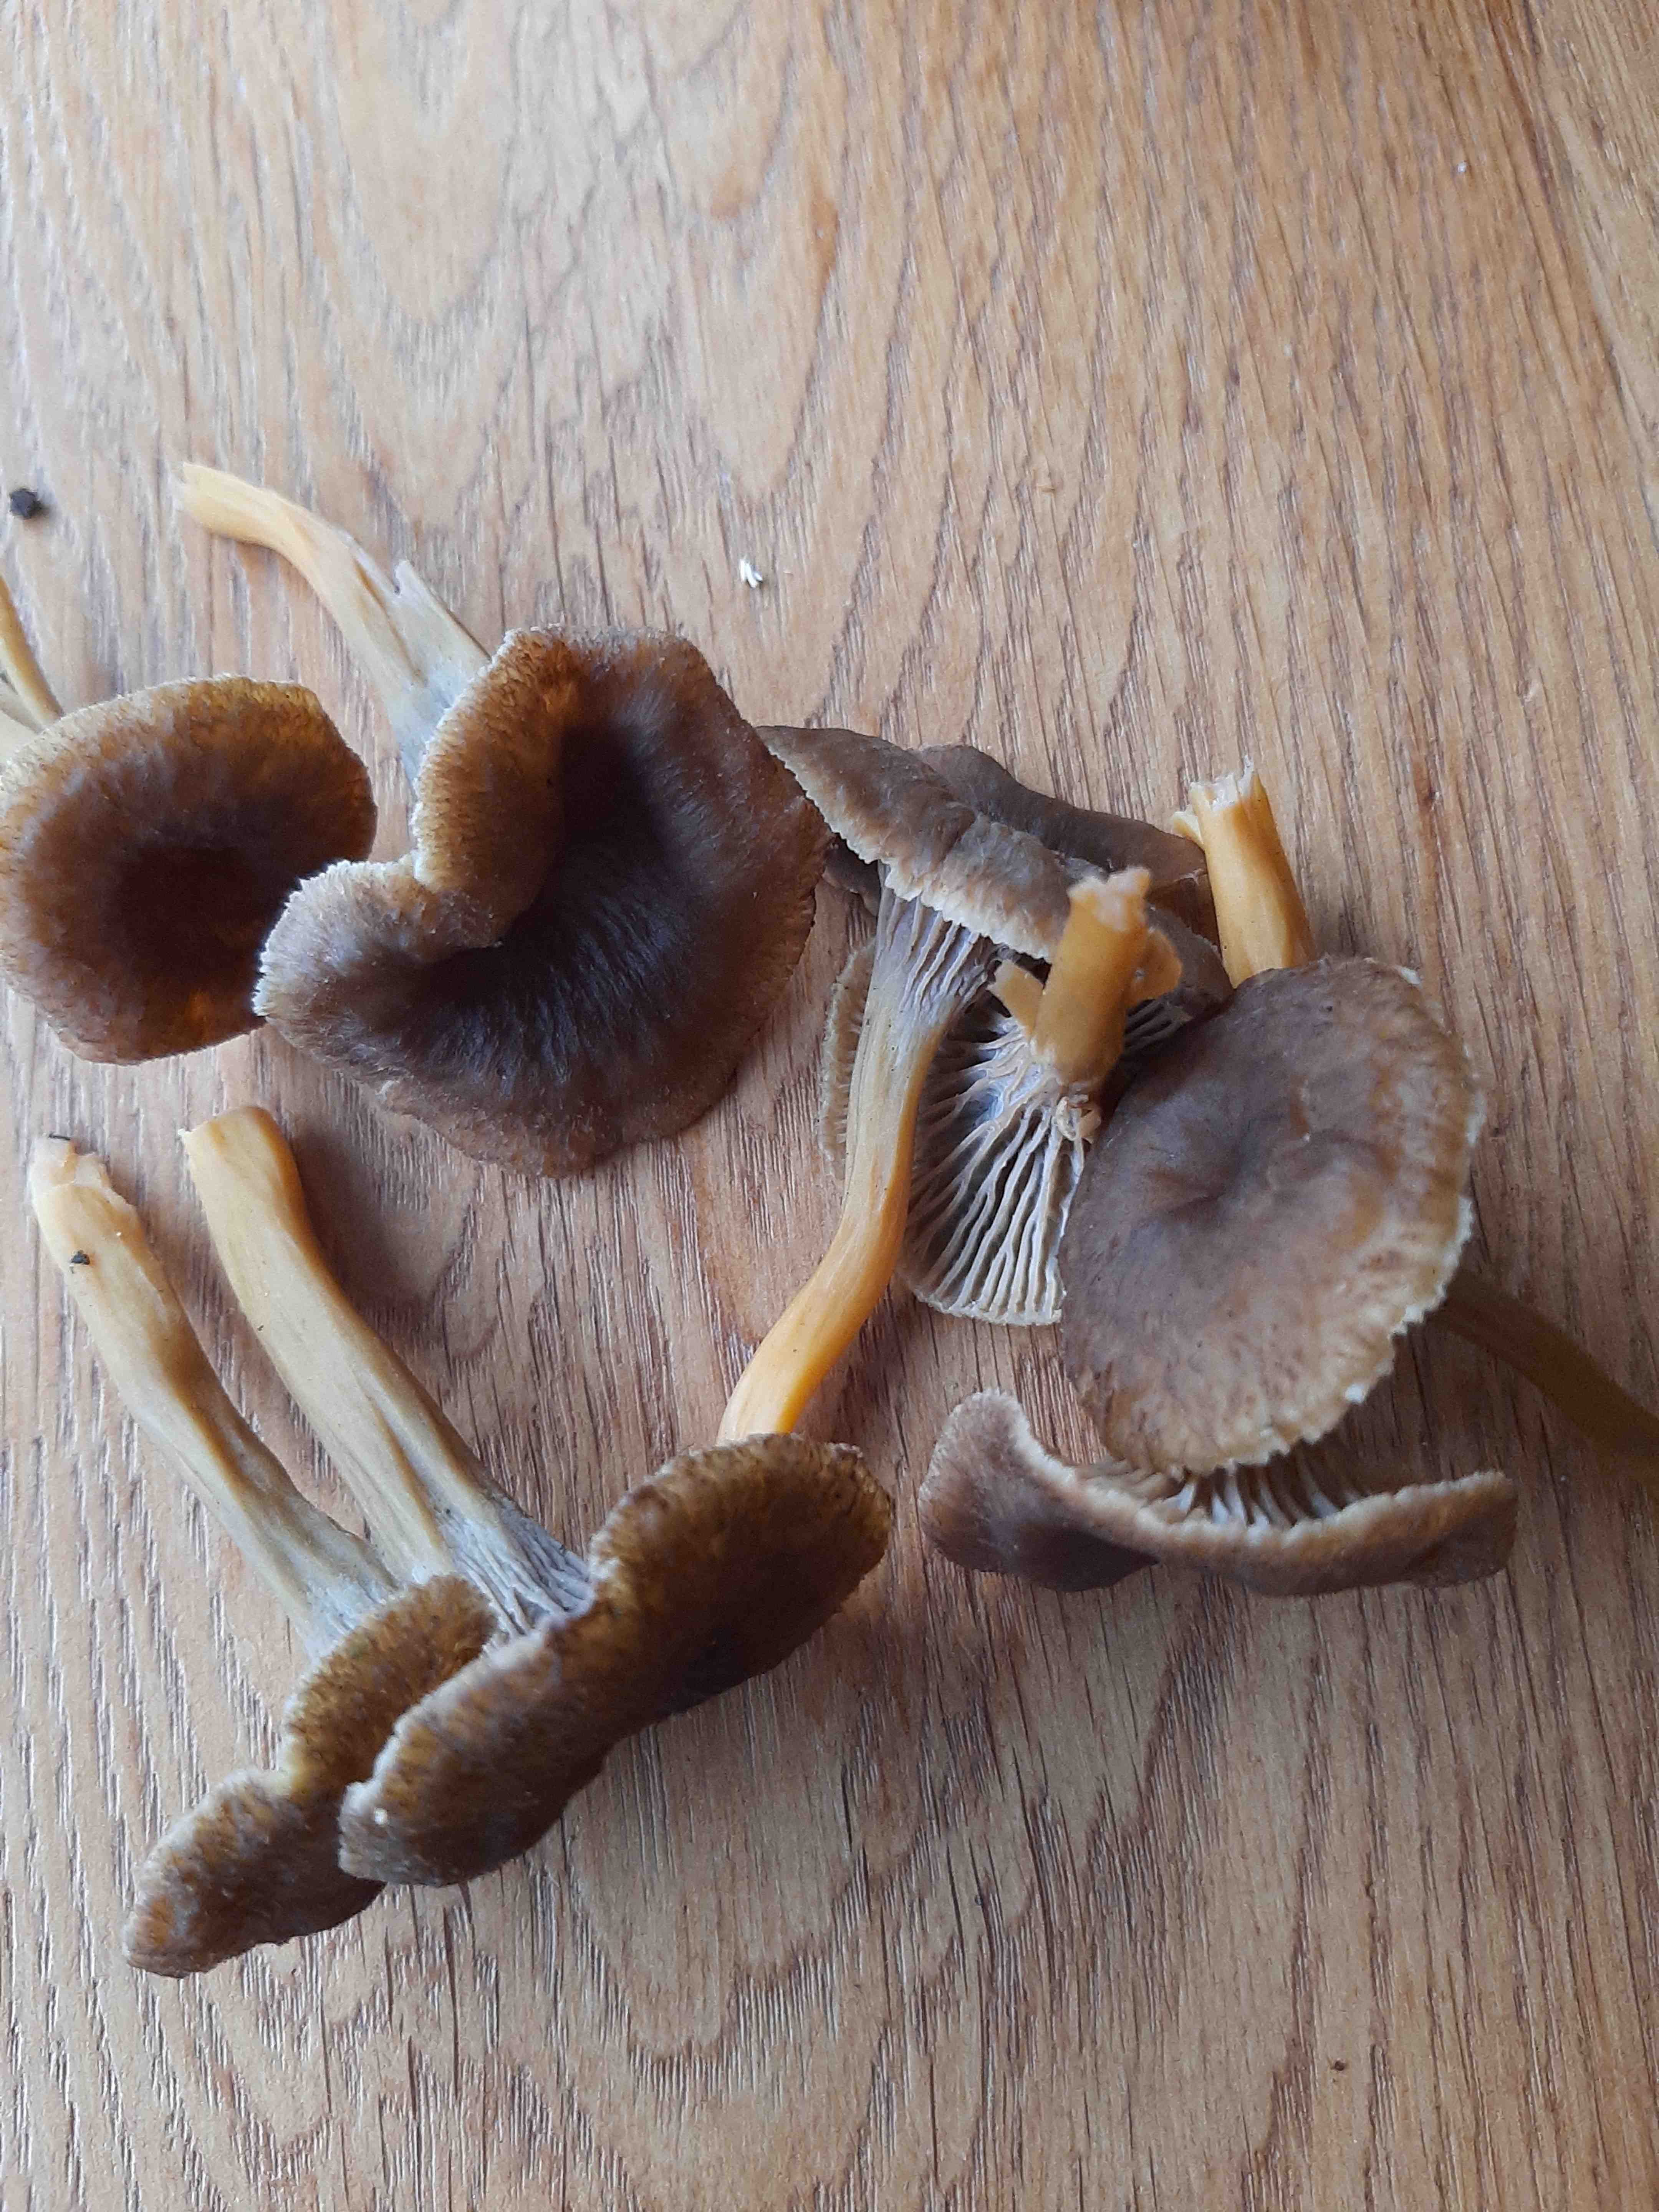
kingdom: Fungi
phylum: Basidiomycota
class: Agaricomycetes
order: Cantharellales
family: Hydnaceae
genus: Craterellus
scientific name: Craterellus tubaeformis
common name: tragt-kantarel
